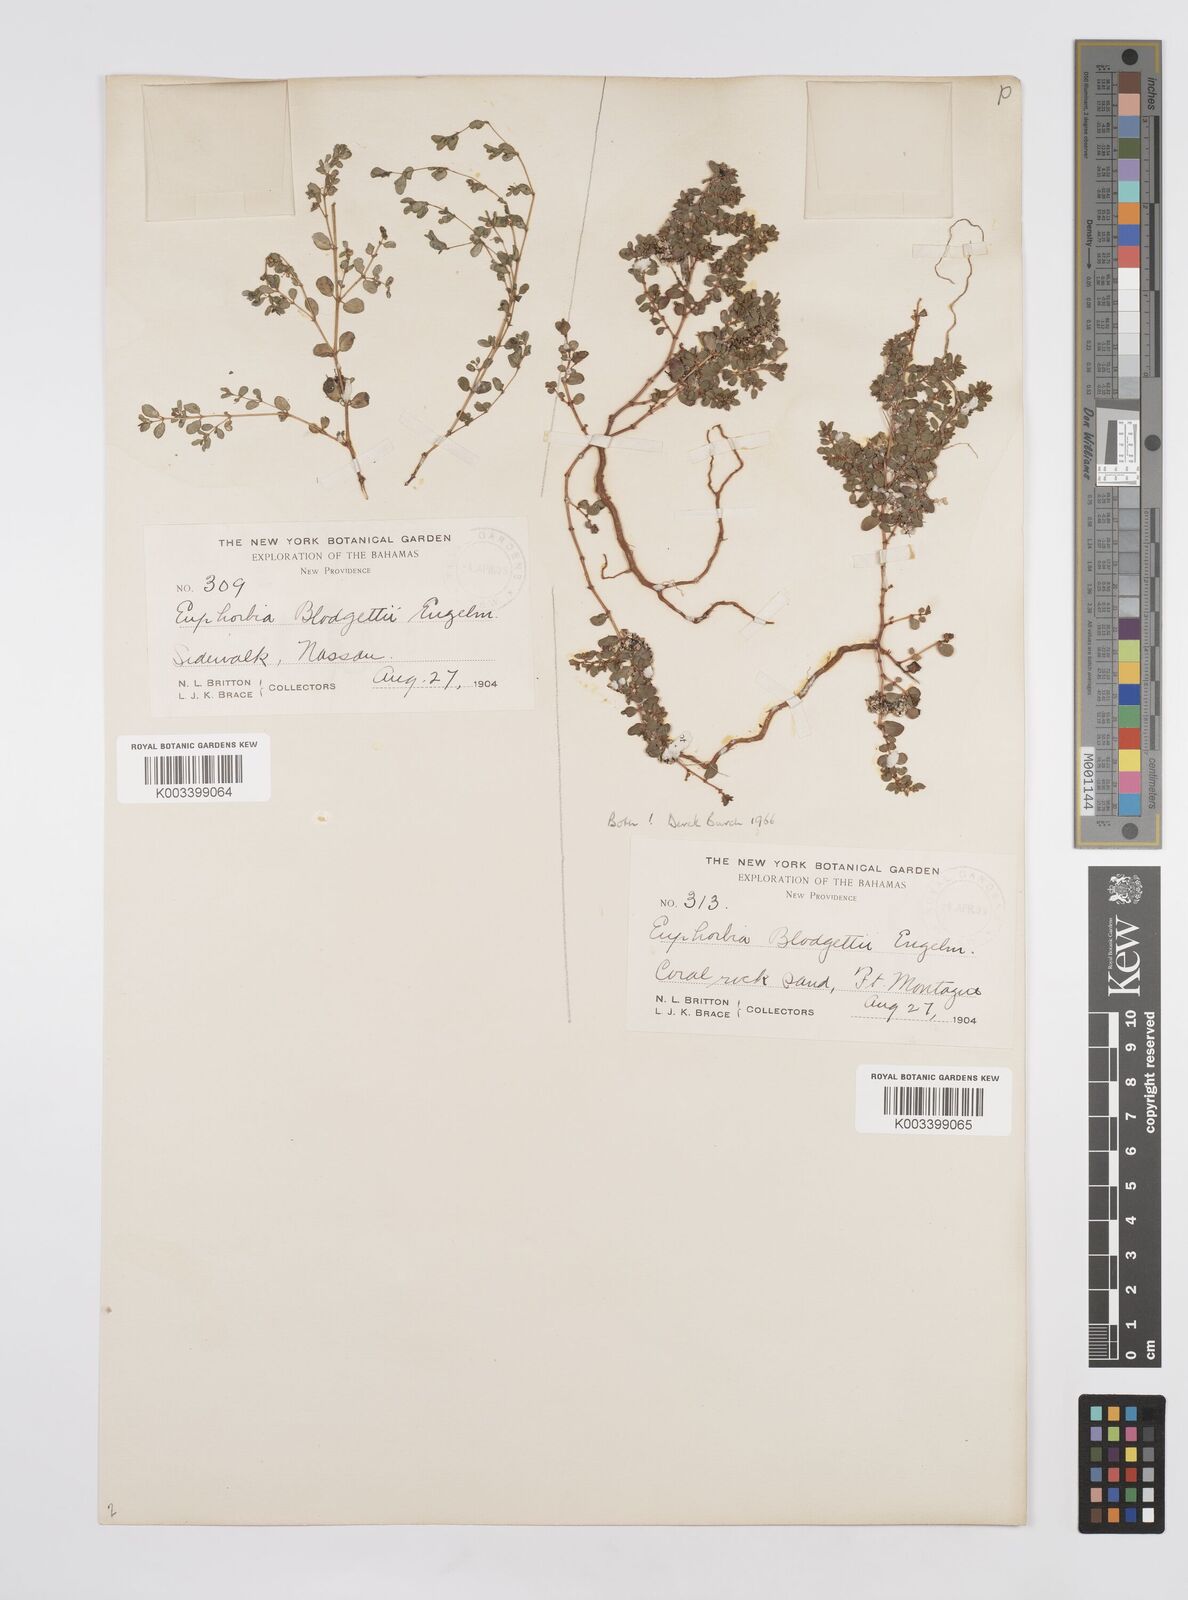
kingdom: Plantae
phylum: Tracheophyta
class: Magnoliopsida
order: Malpighiales
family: Euphorbiaceae
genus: Euphorbia
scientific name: Euphorbia blodgettii
